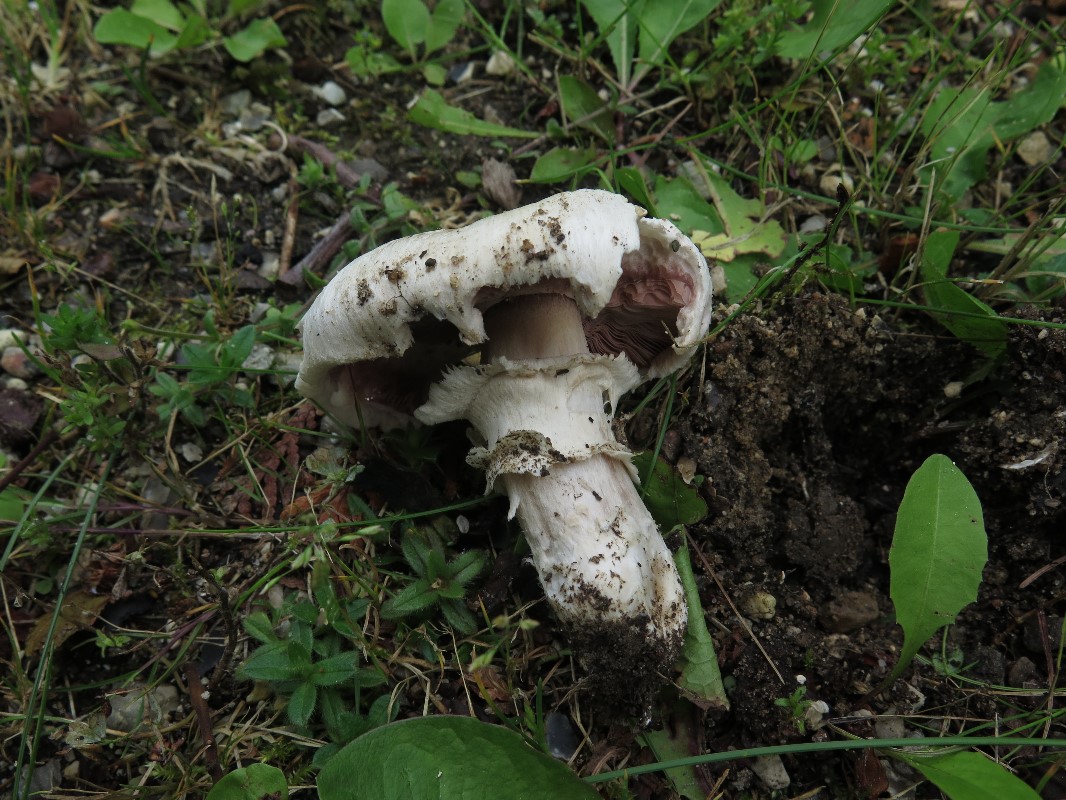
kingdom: Fungi
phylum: Basidiomycota
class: Agaricomycetes
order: Agaricales
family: Agaricaceae
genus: Agaricus
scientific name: Agaricus bitorquis
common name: vej-champignon
